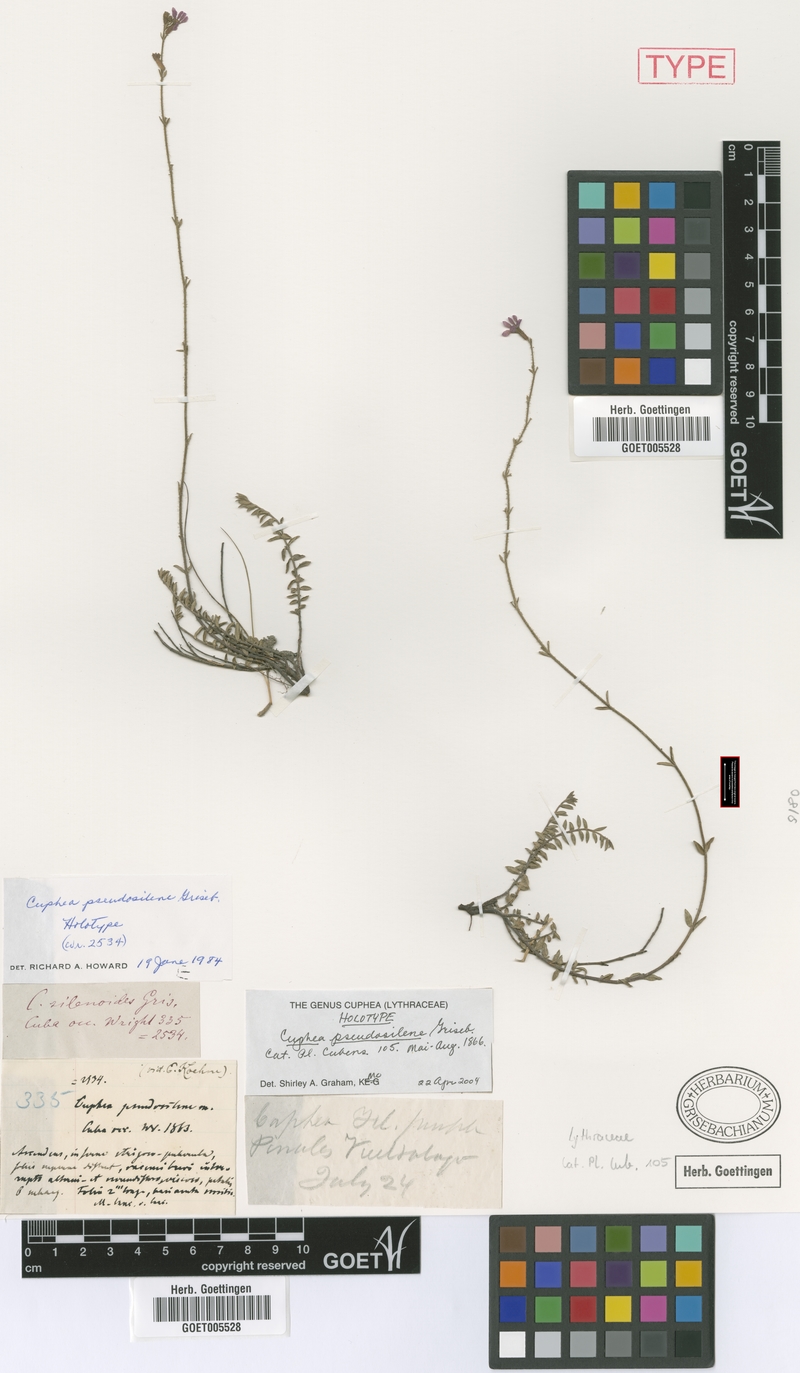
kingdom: Plantae
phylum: Tracheophyta
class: Magnoliopsida
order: Myrtales
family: Lythraceae
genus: Cuphea
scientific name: Cuphea pseudosilene
